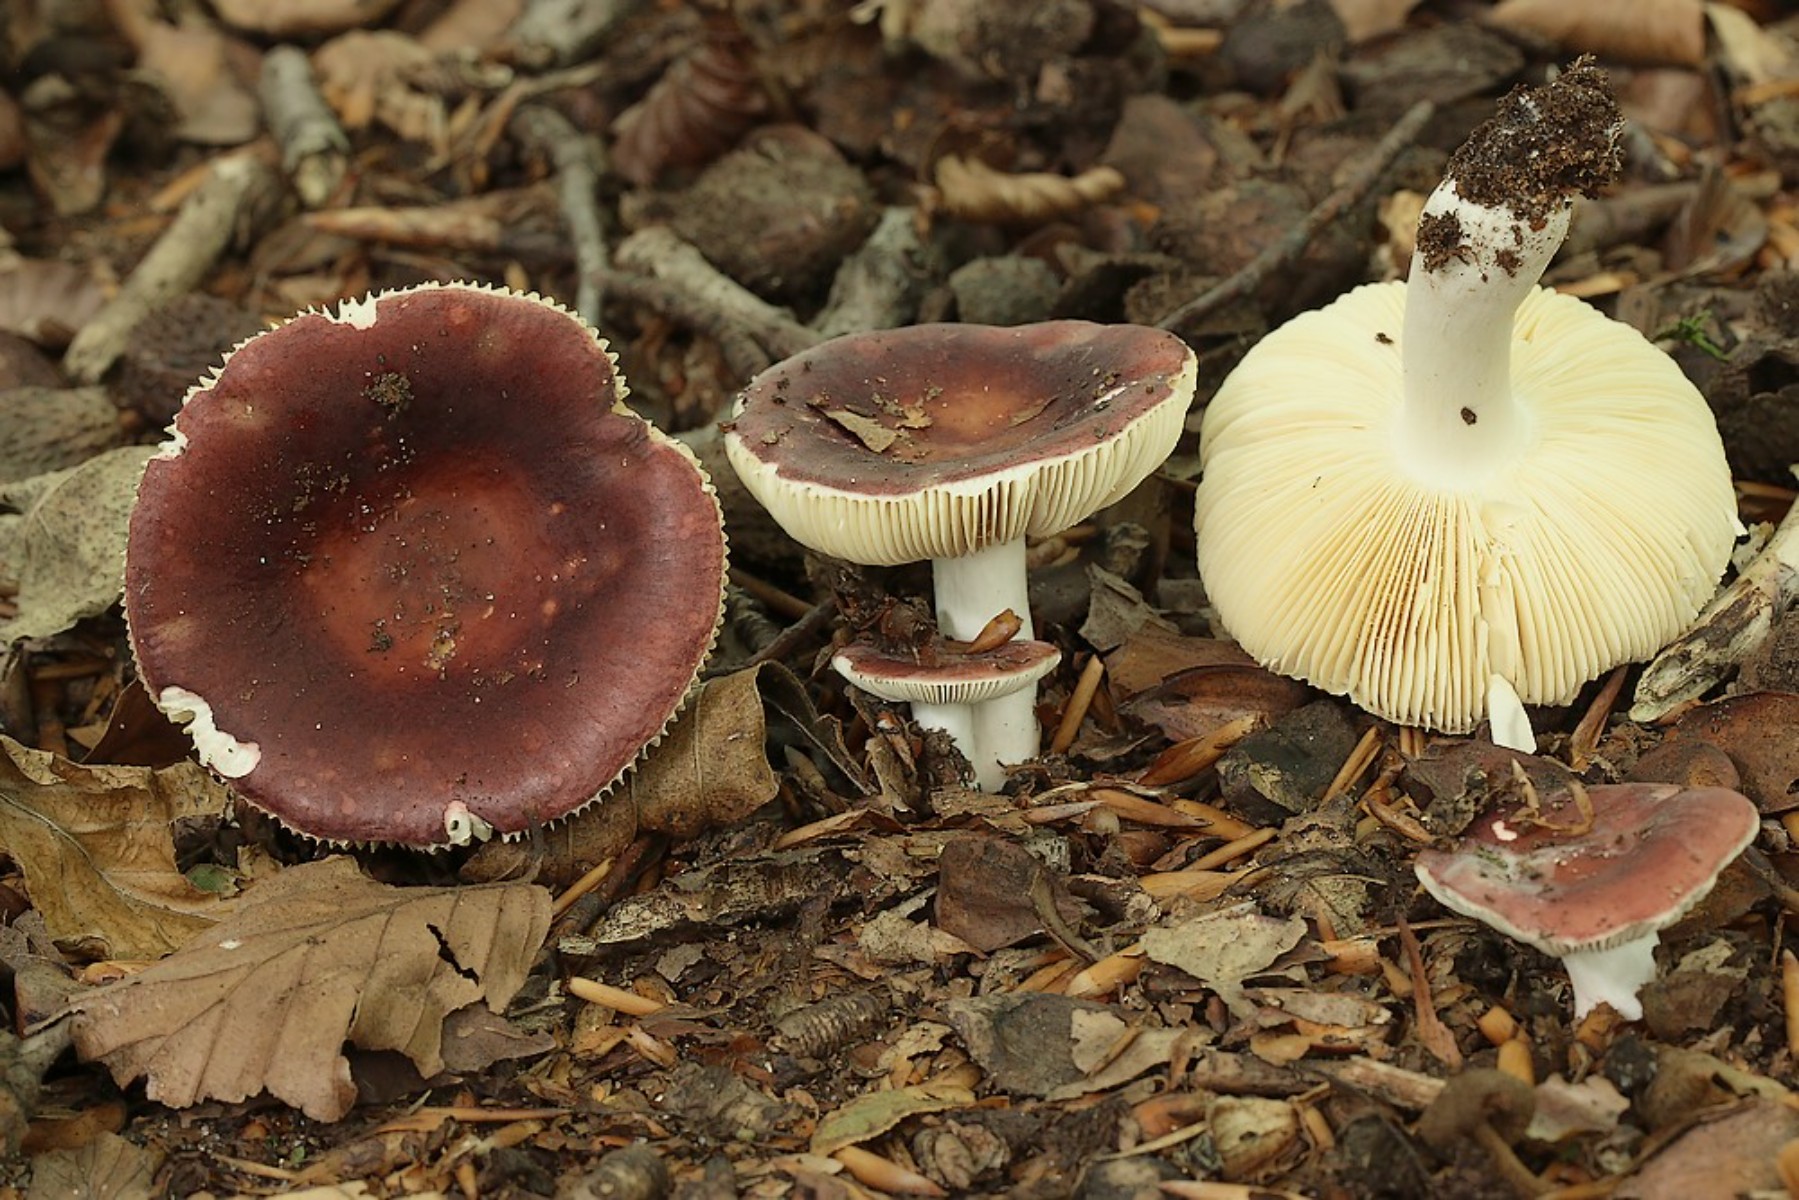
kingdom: Fungi
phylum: Basidiomycota
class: Agaricomycetes
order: Russulales
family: Russulaceae
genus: Russula
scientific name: Russula
